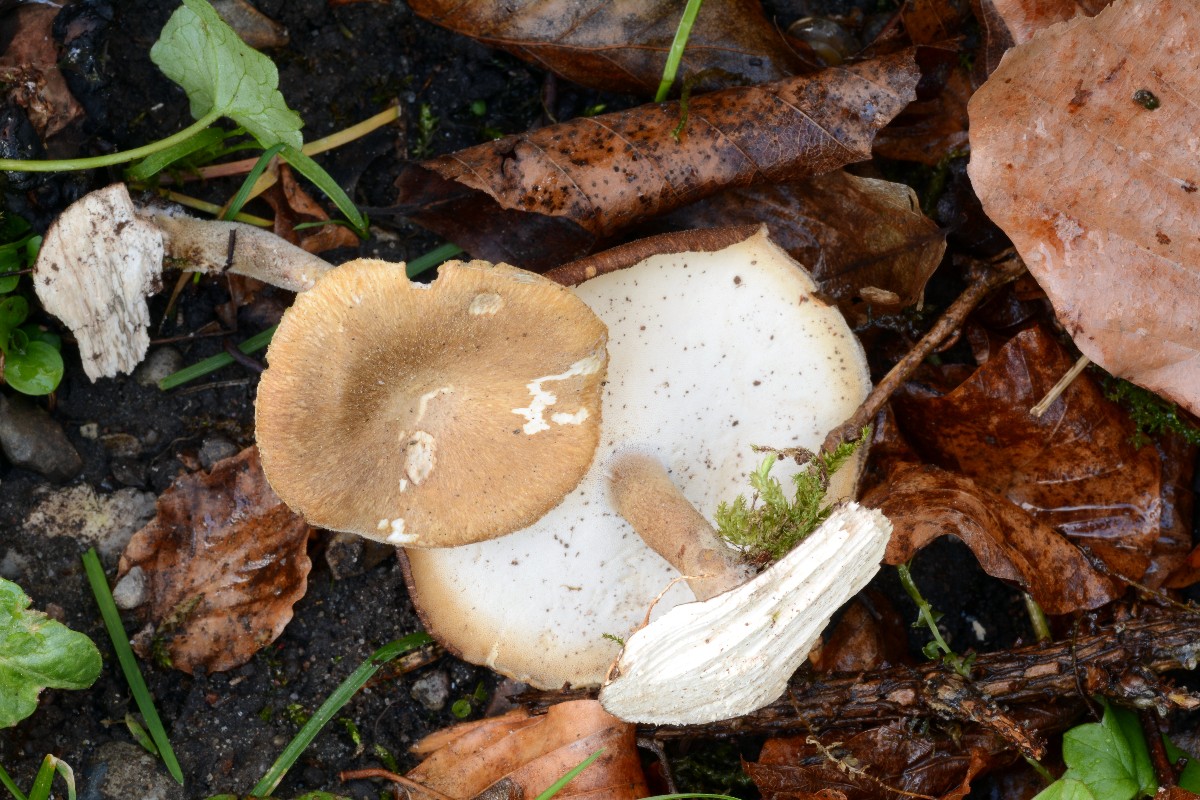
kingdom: Fungi
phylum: Basidiomycota
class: Agaricomycetes
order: Polyporales
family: Polyporaceae
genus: Lentinus
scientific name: Lentinus substrictus
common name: forårs-stilkporesvamp
